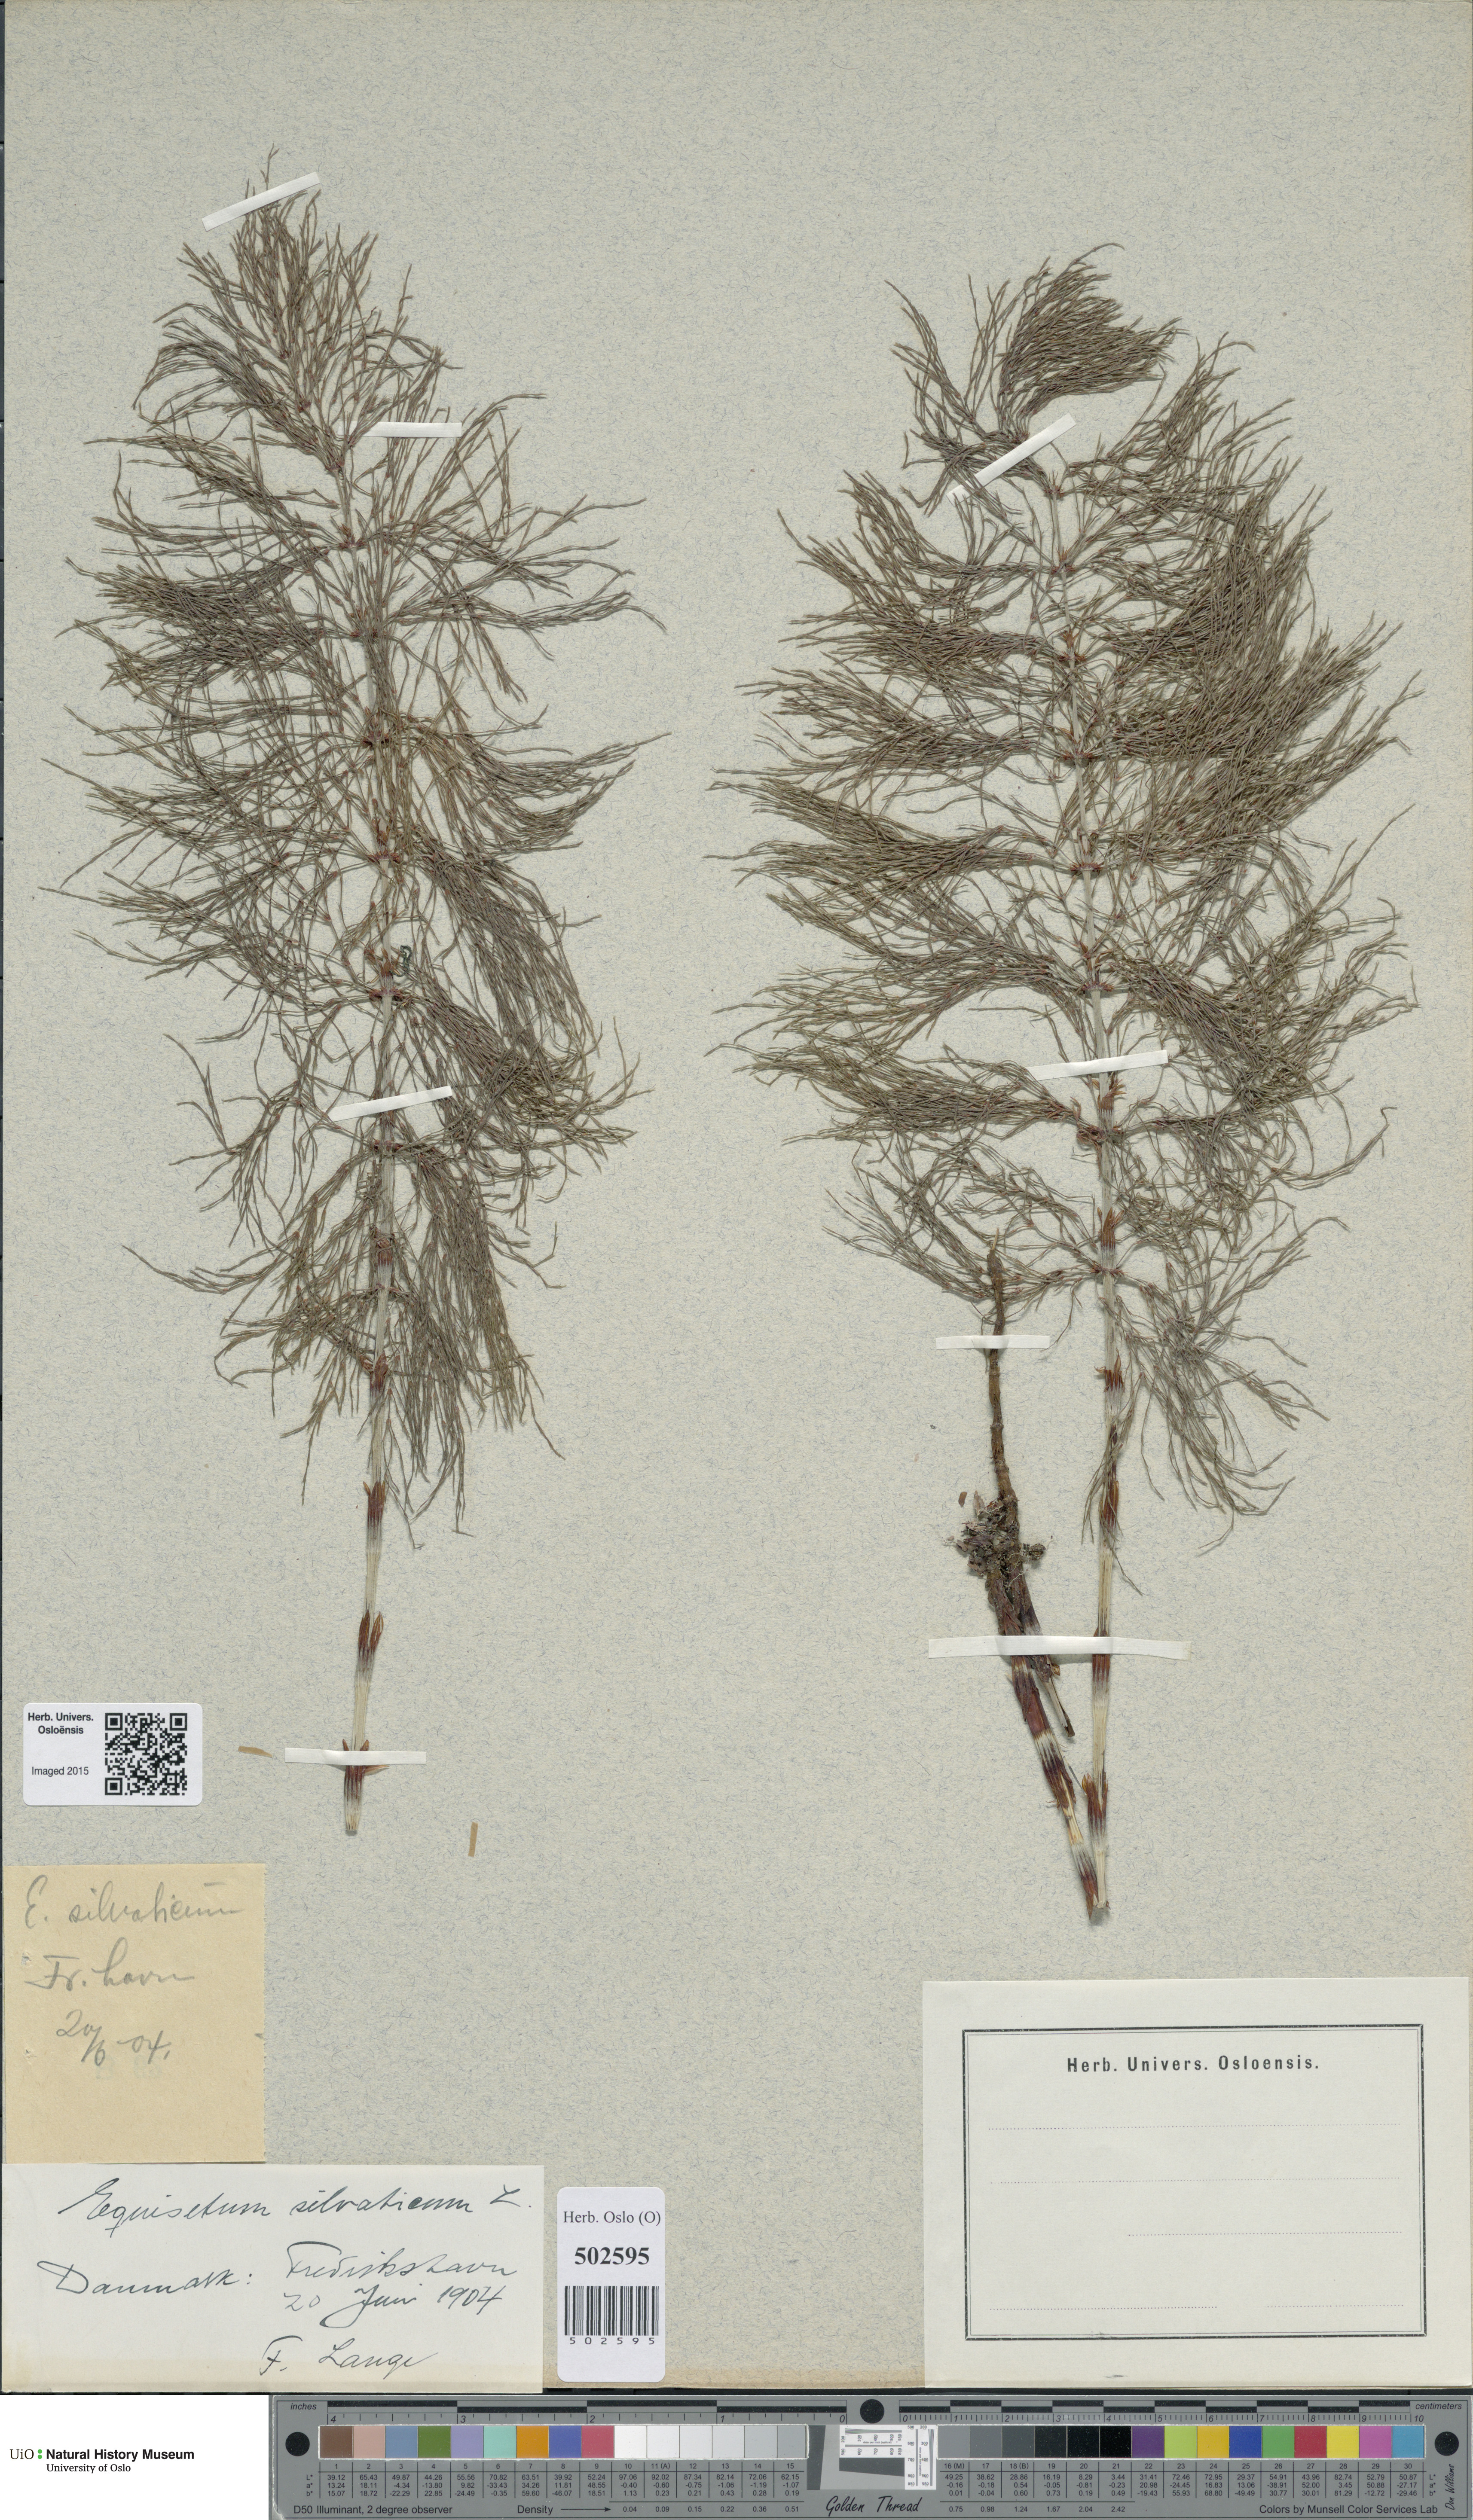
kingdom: Plantae
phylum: Tracheophyta
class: Polypodiopsida
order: Equisetales
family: Equisetaceae
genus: Equisetum
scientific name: Equisetum sylvaticum
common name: Wood horsetail
